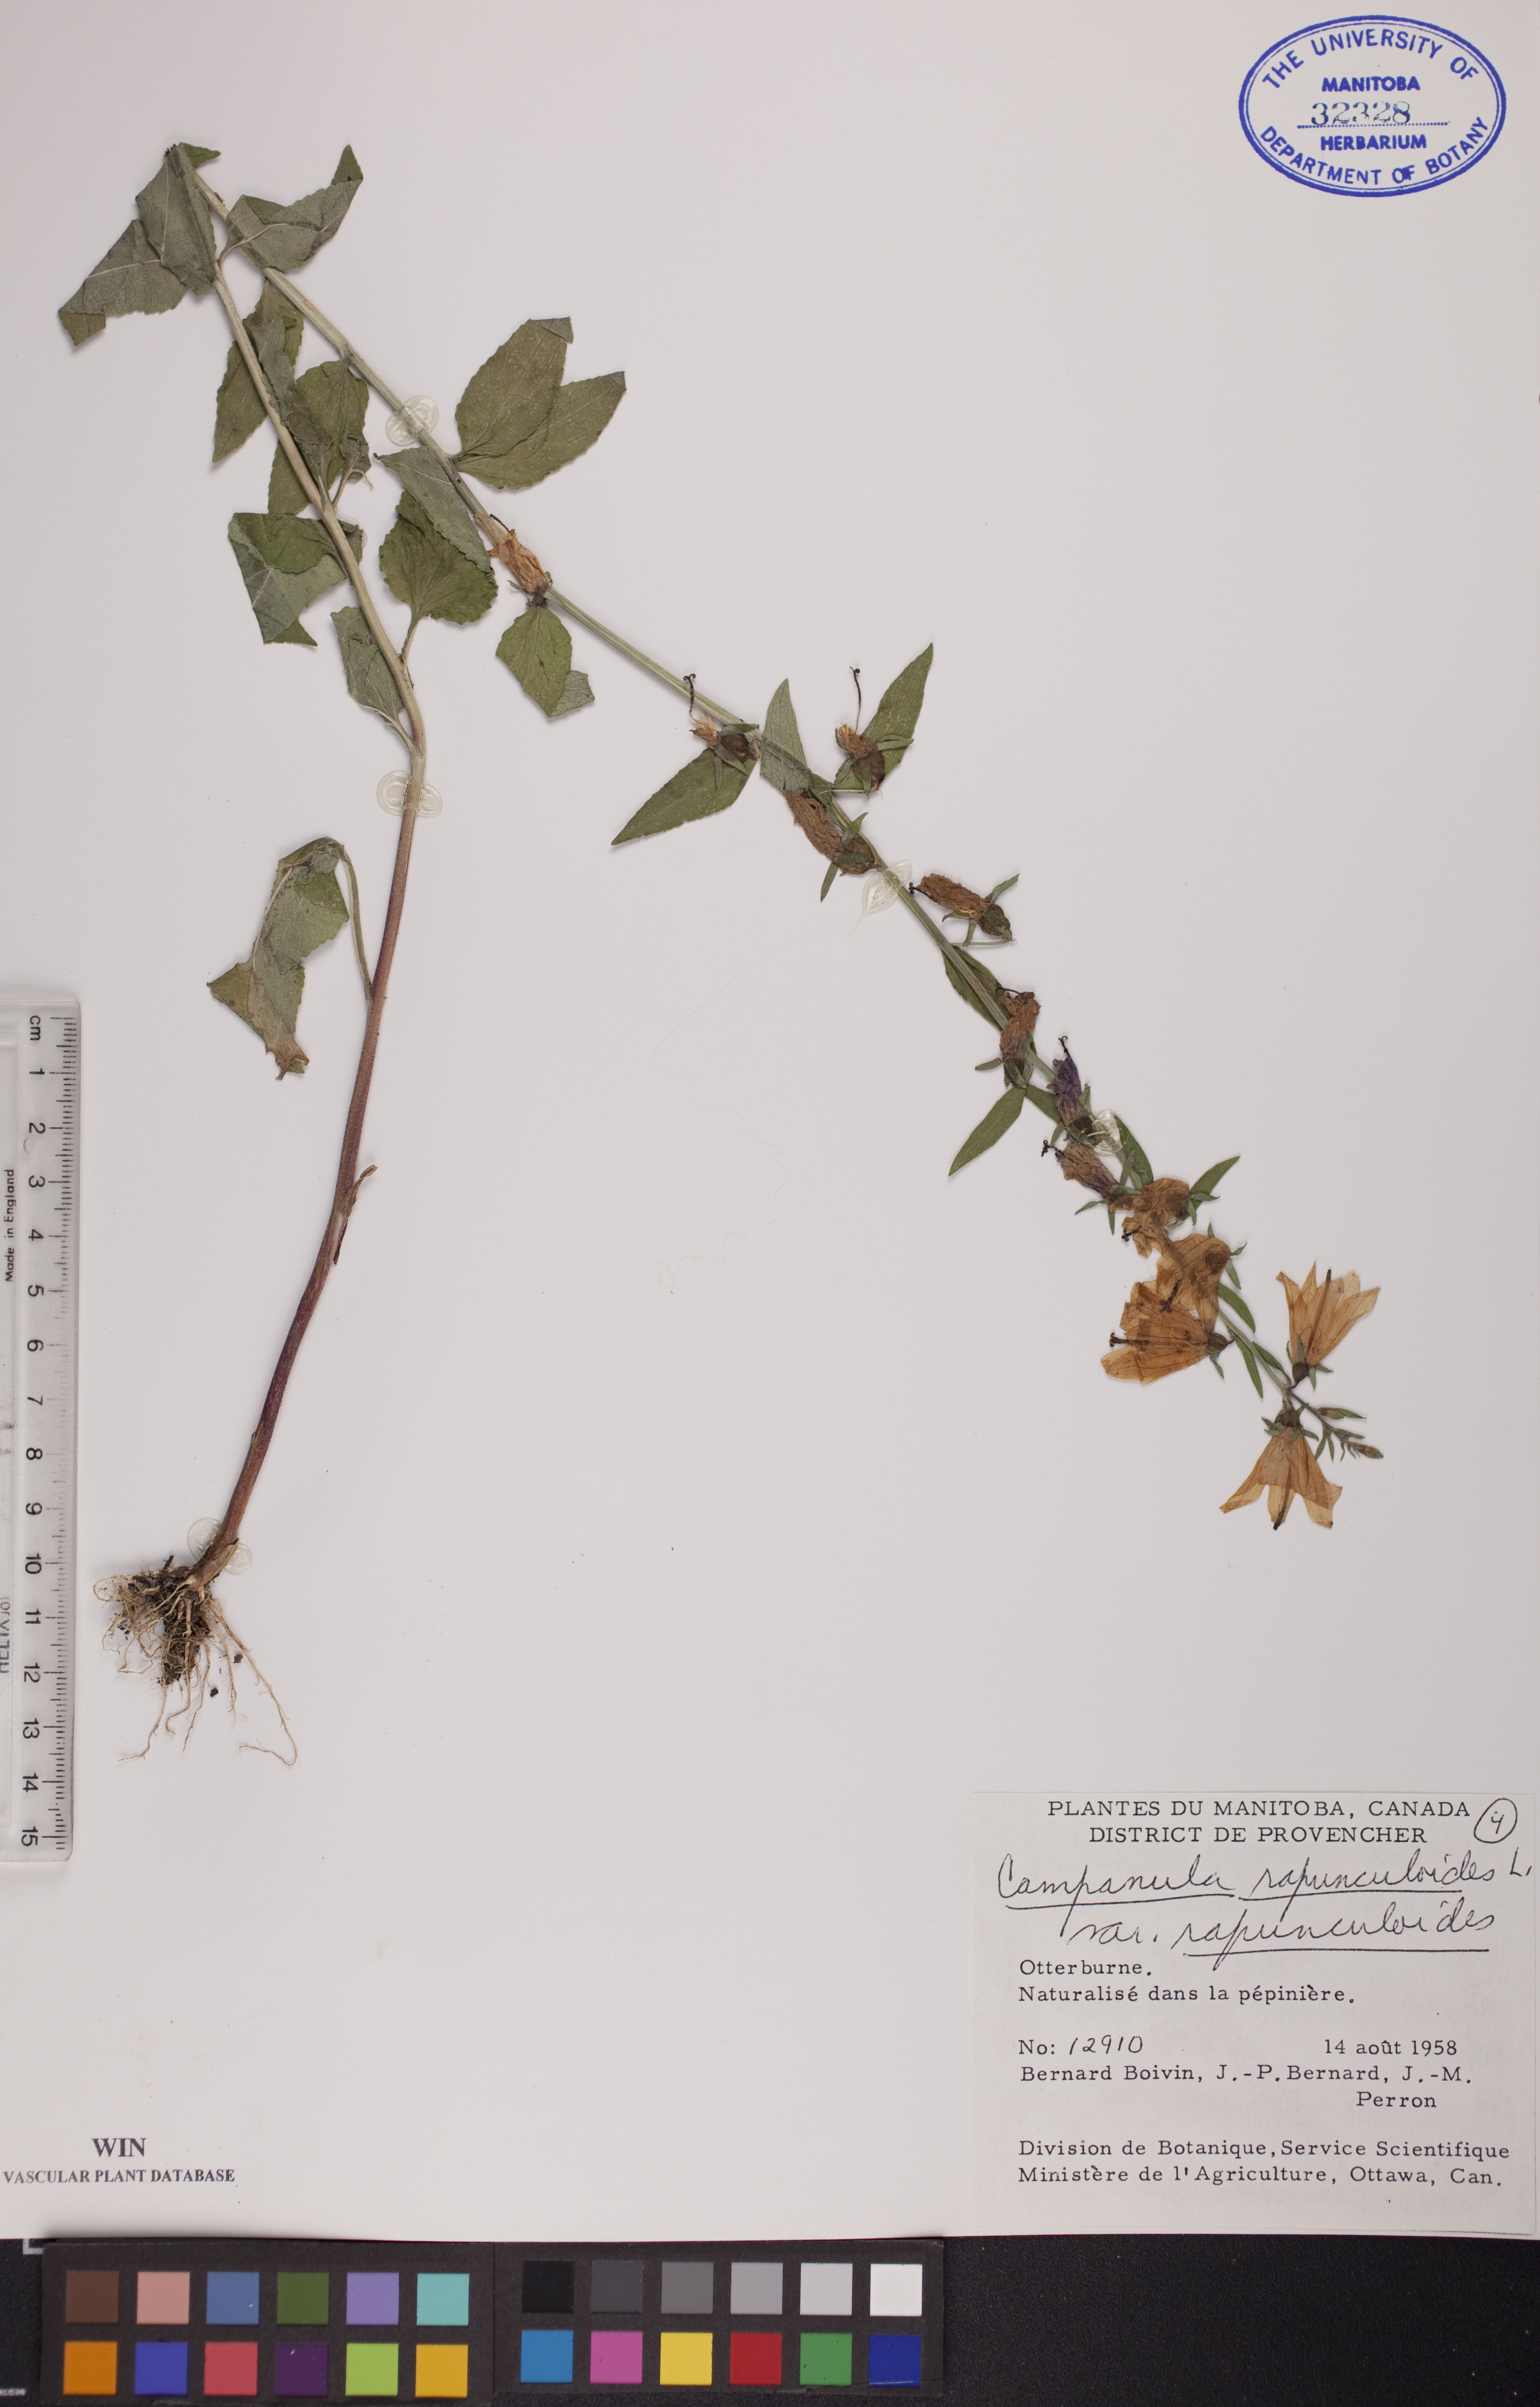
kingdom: Plantae
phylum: Tracheophyta
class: Magnoliopsida
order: Asterales
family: Campanulaceae
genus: Campanula
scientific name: Campanula rapunculoides
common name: Creeping bellflower
